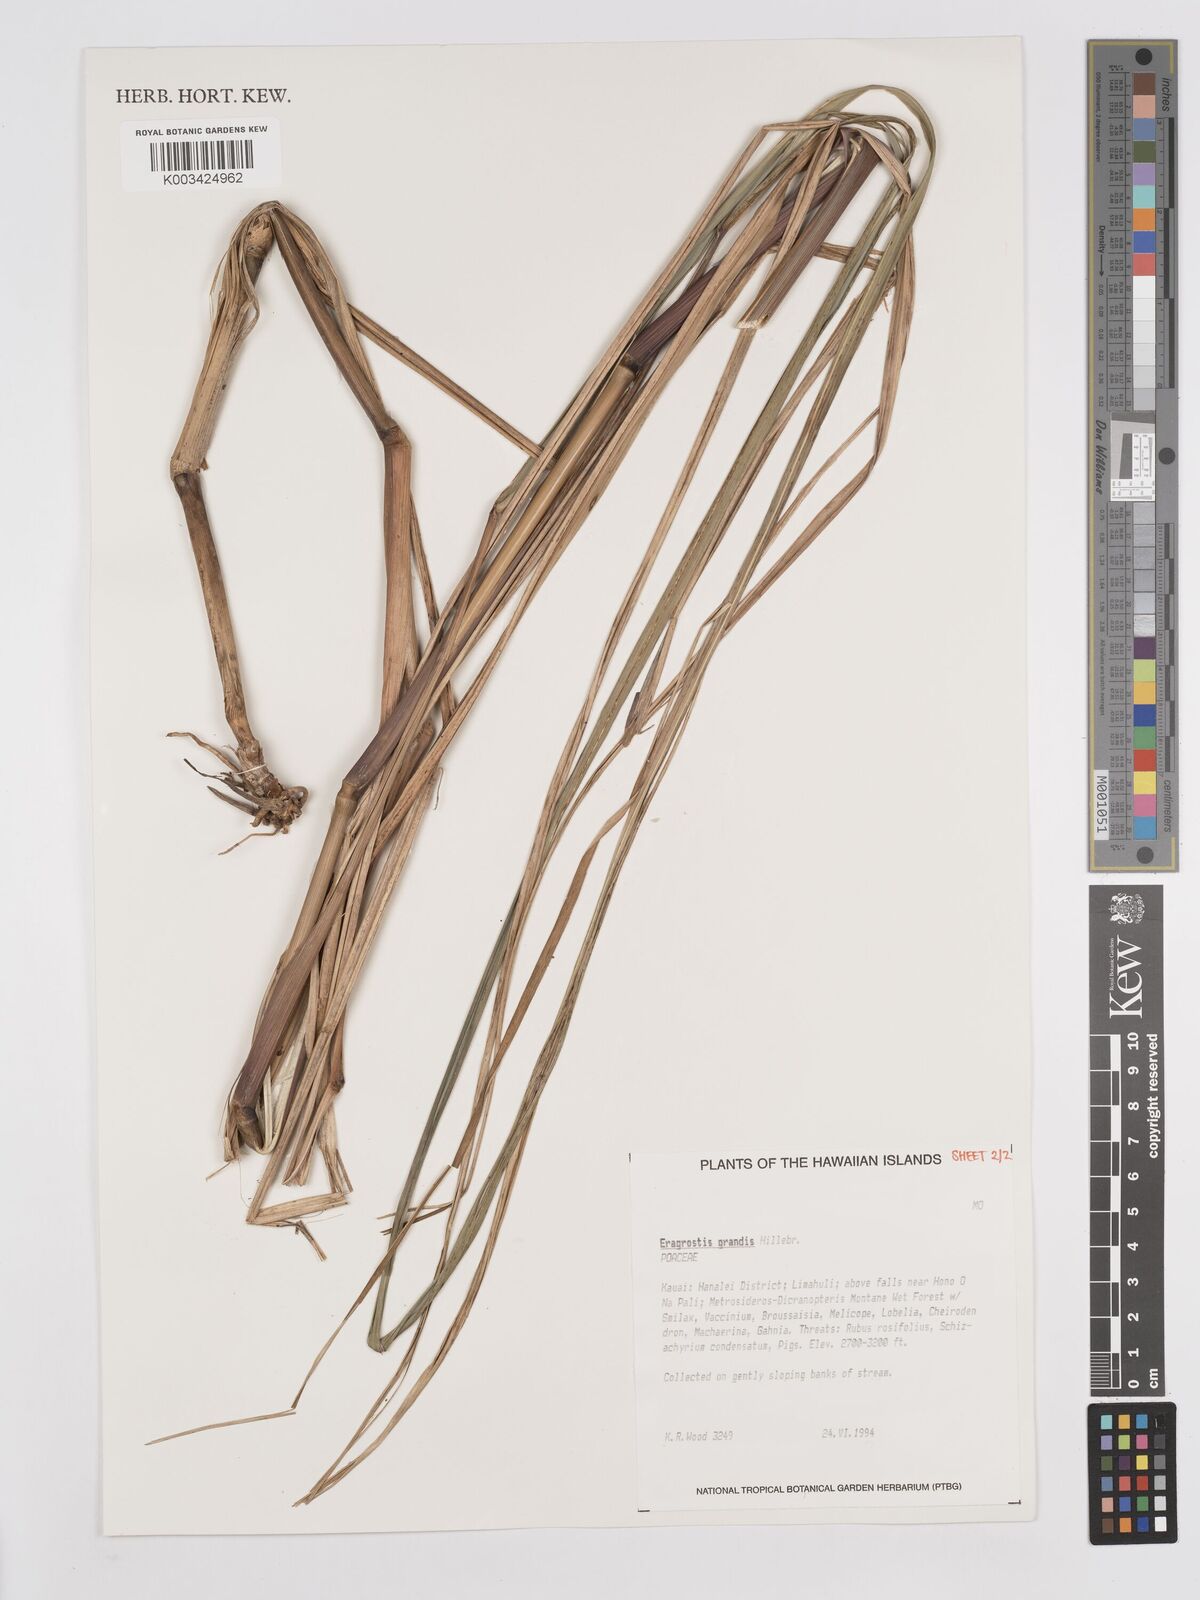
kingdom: Plantae
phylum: Tracheophyta
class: Liliopsida
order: Poales
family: Poaceae
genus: Eragrostis
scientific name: Eragrostis grandis
